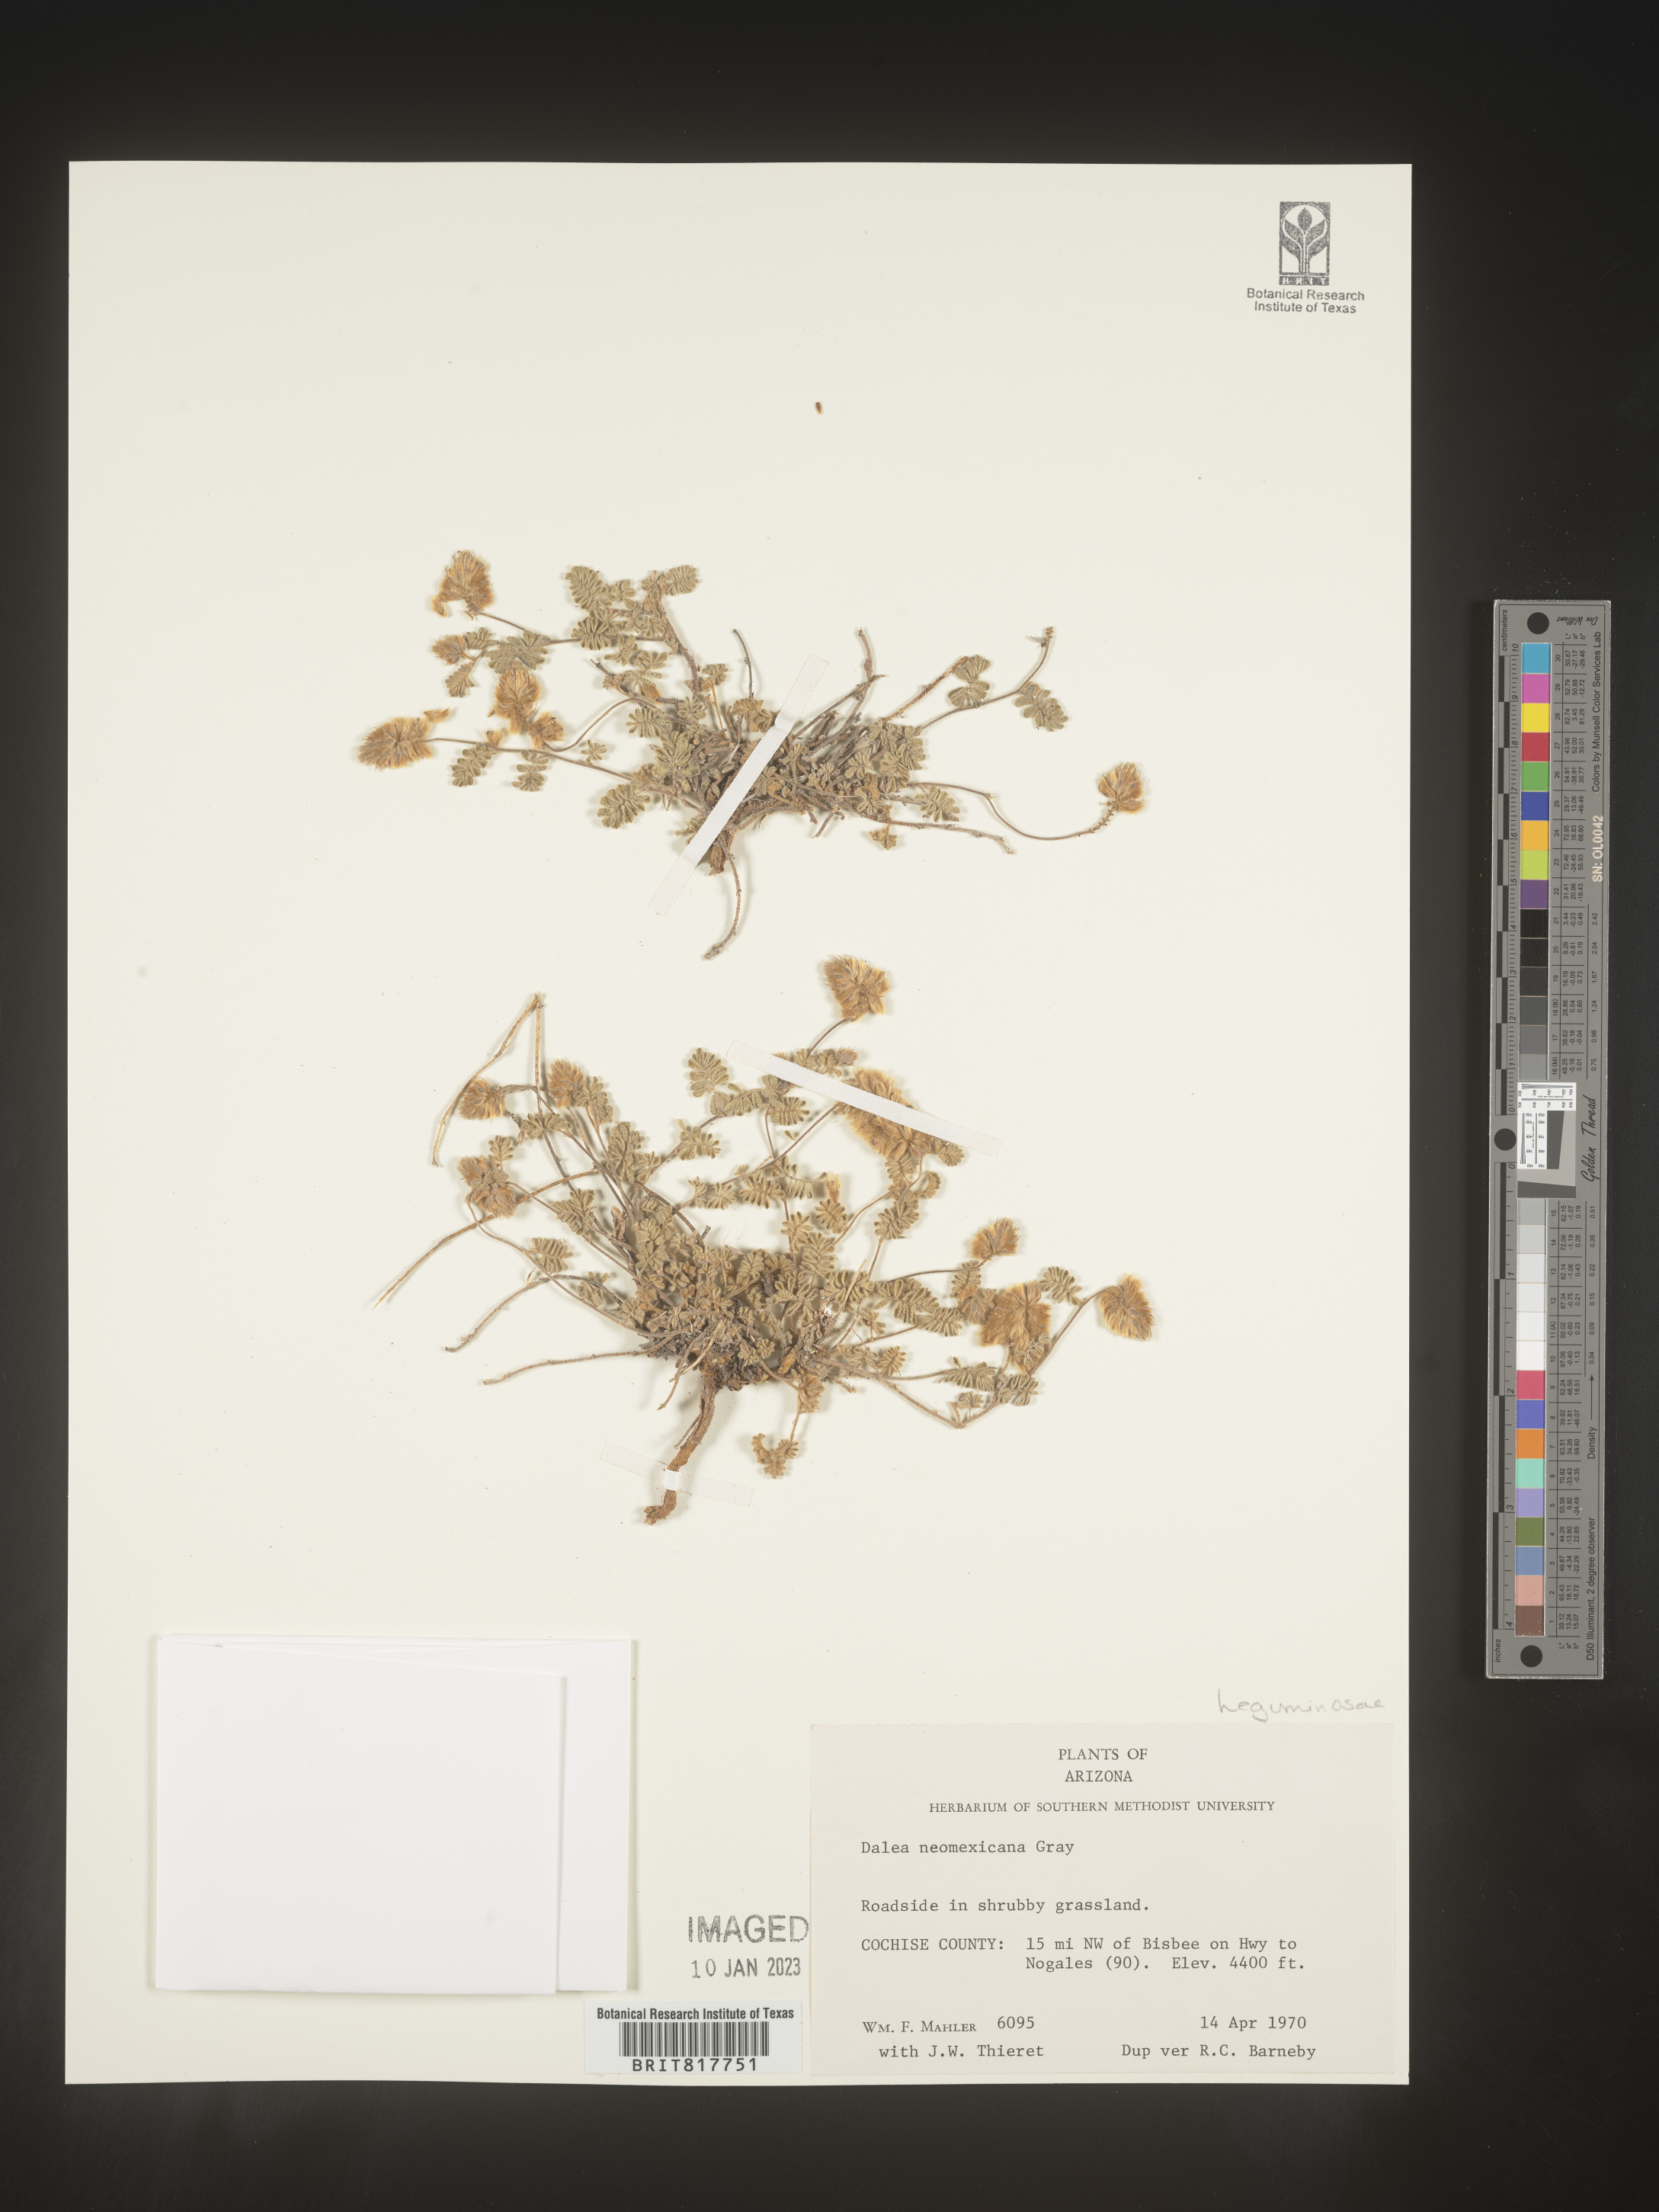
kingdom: Plantae
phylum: Tracheophyta
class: Magnoliopsida
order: Fabales
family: Fabaceae
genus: Dalea
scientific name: Dalea neomexicana
